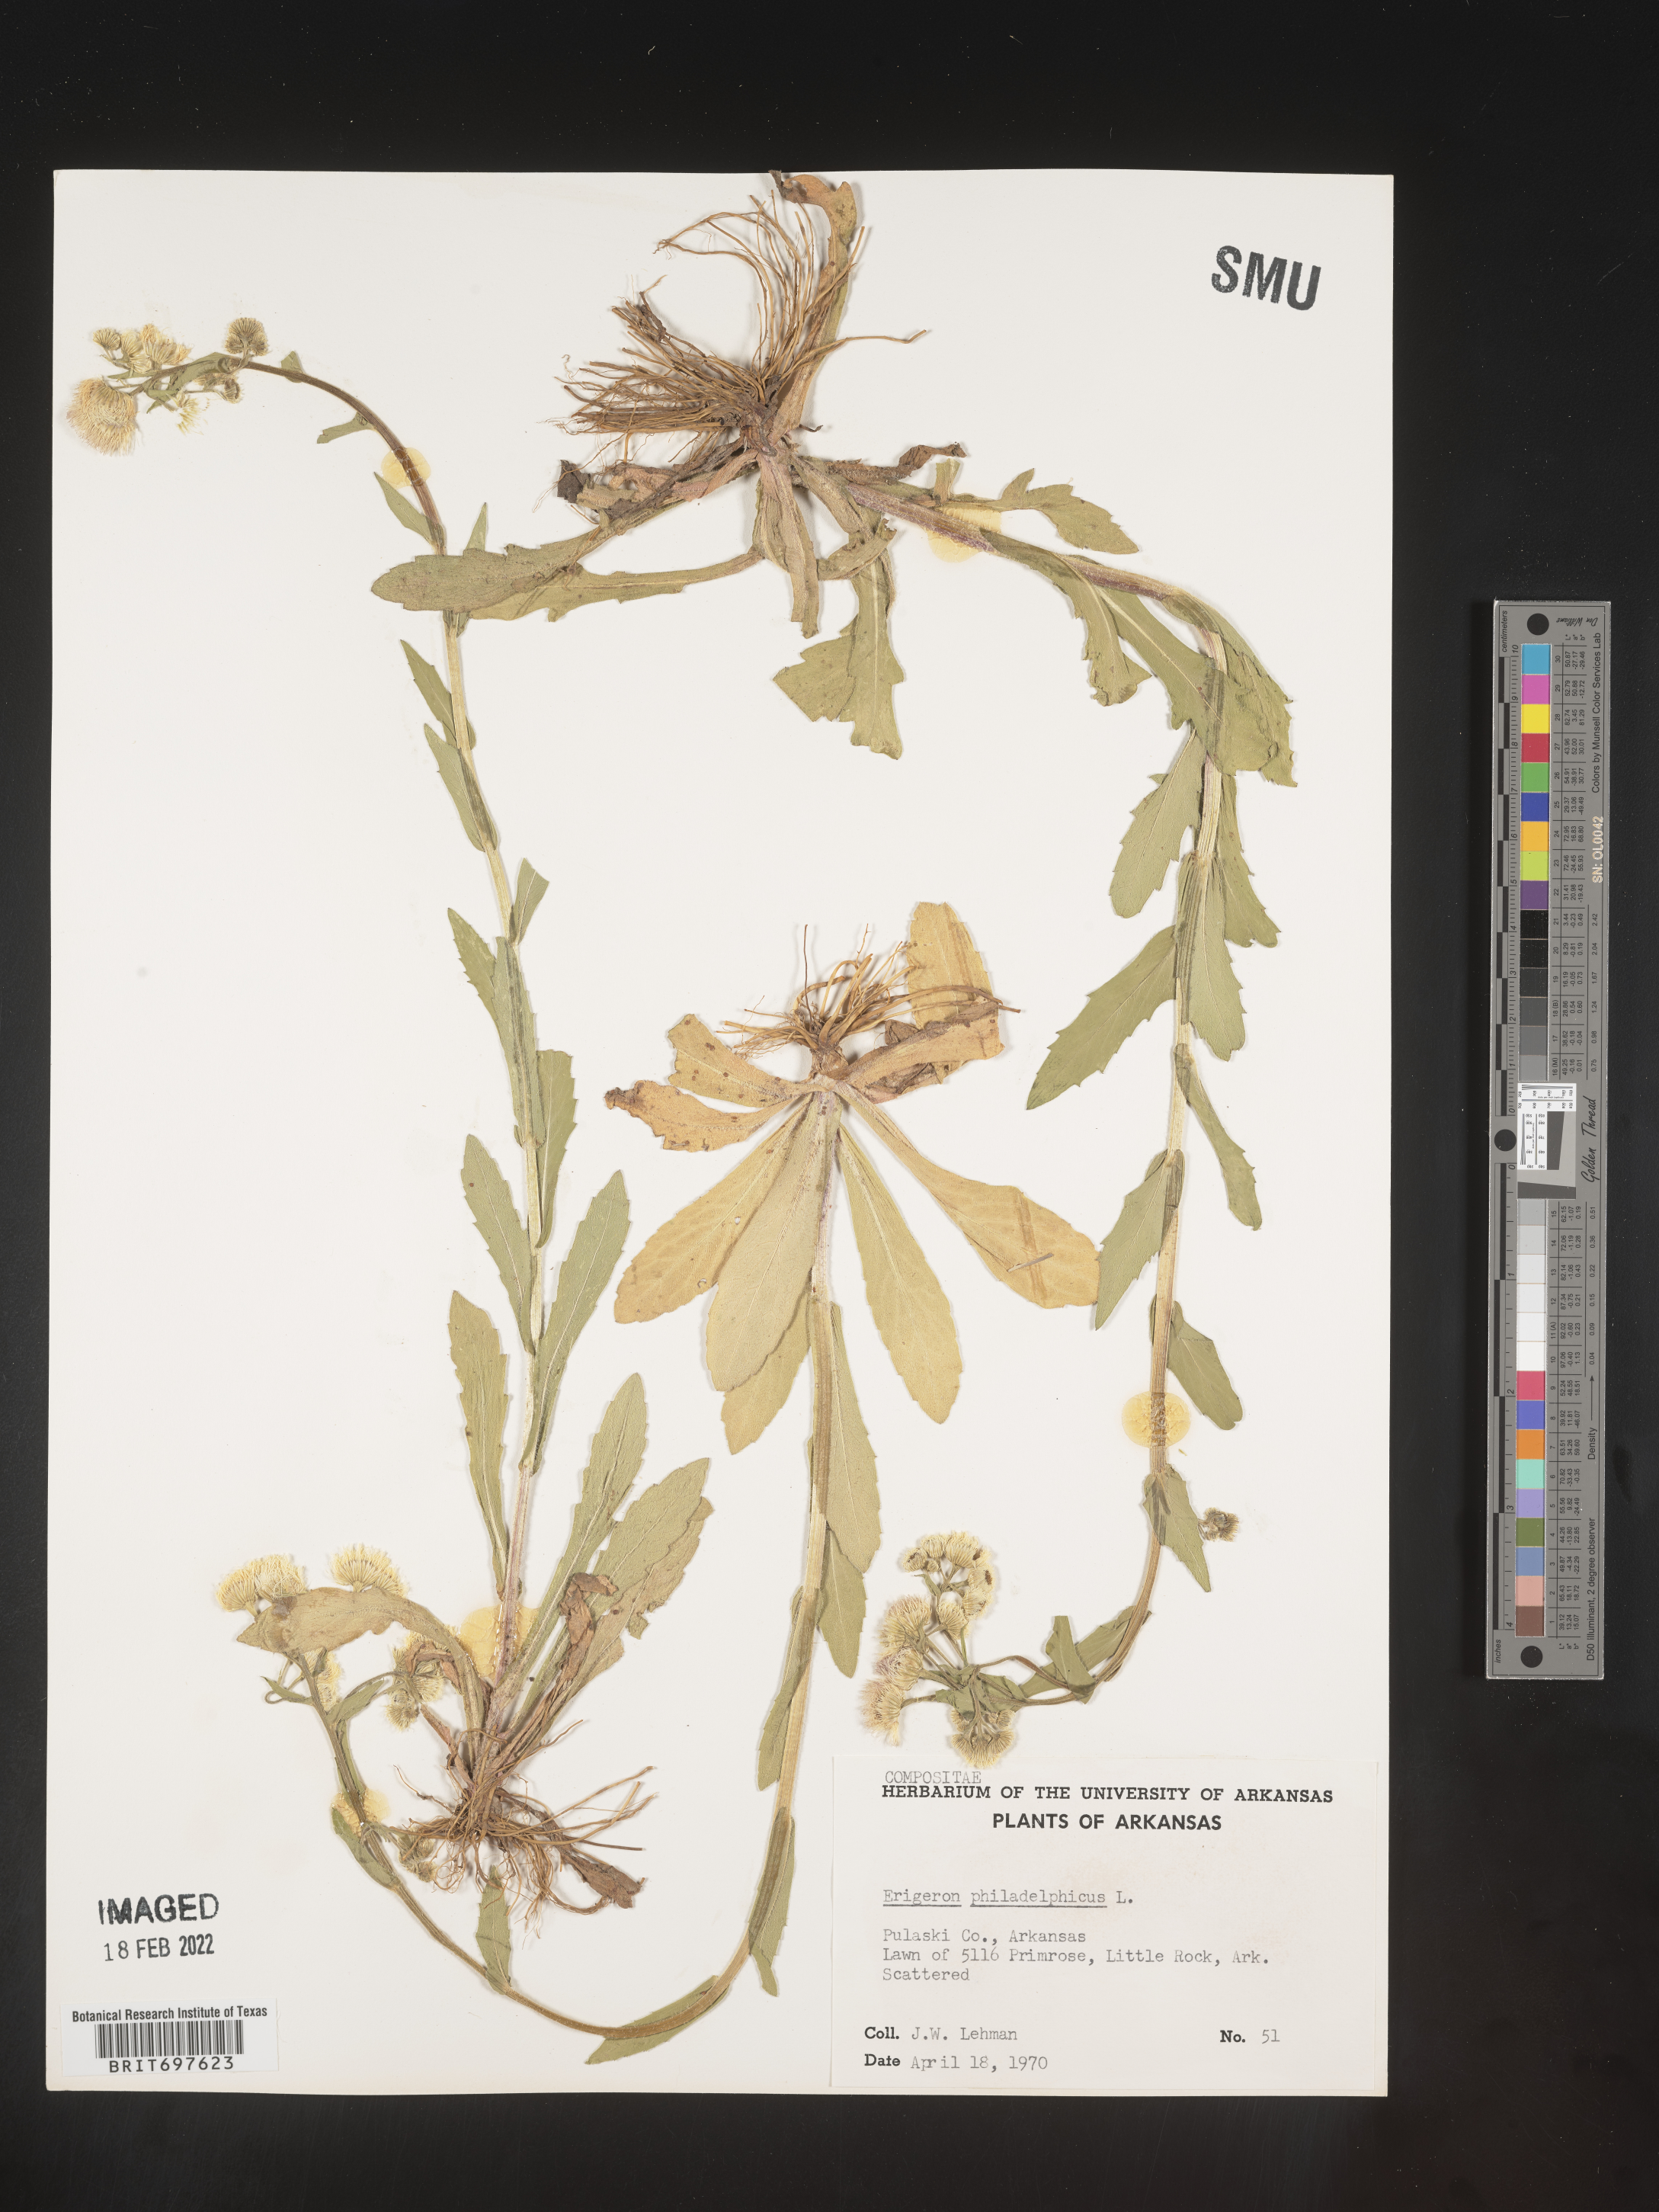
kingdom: Plantae
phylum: Tracheophyta
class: Magnoliopsida
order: Asterales
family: Asteraceae
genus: Erigeron
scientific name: Erigeron philadelphicus
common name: Robin's-plantain
